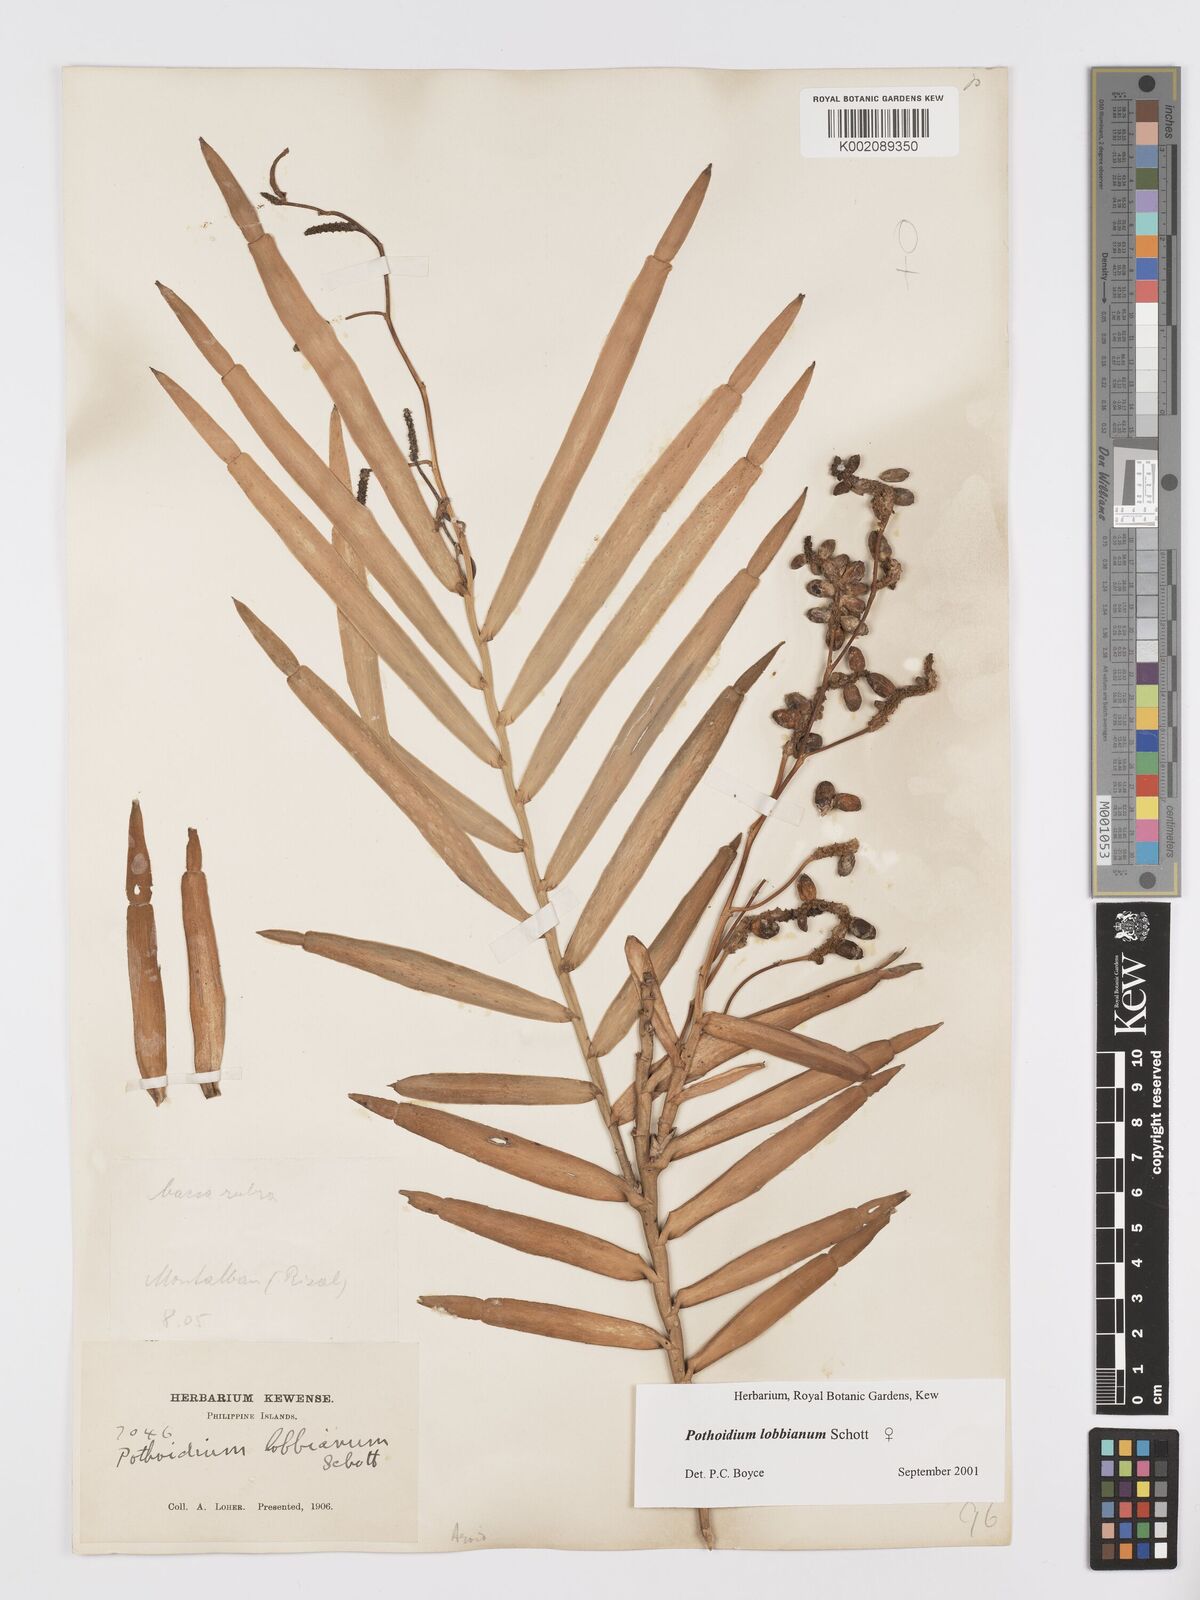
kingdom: Plantae
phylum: Tracheophyta
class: Liliopsida
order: Alismatales
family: Araceae
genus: Pothoidium
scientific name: Pothoidium lobbianum
